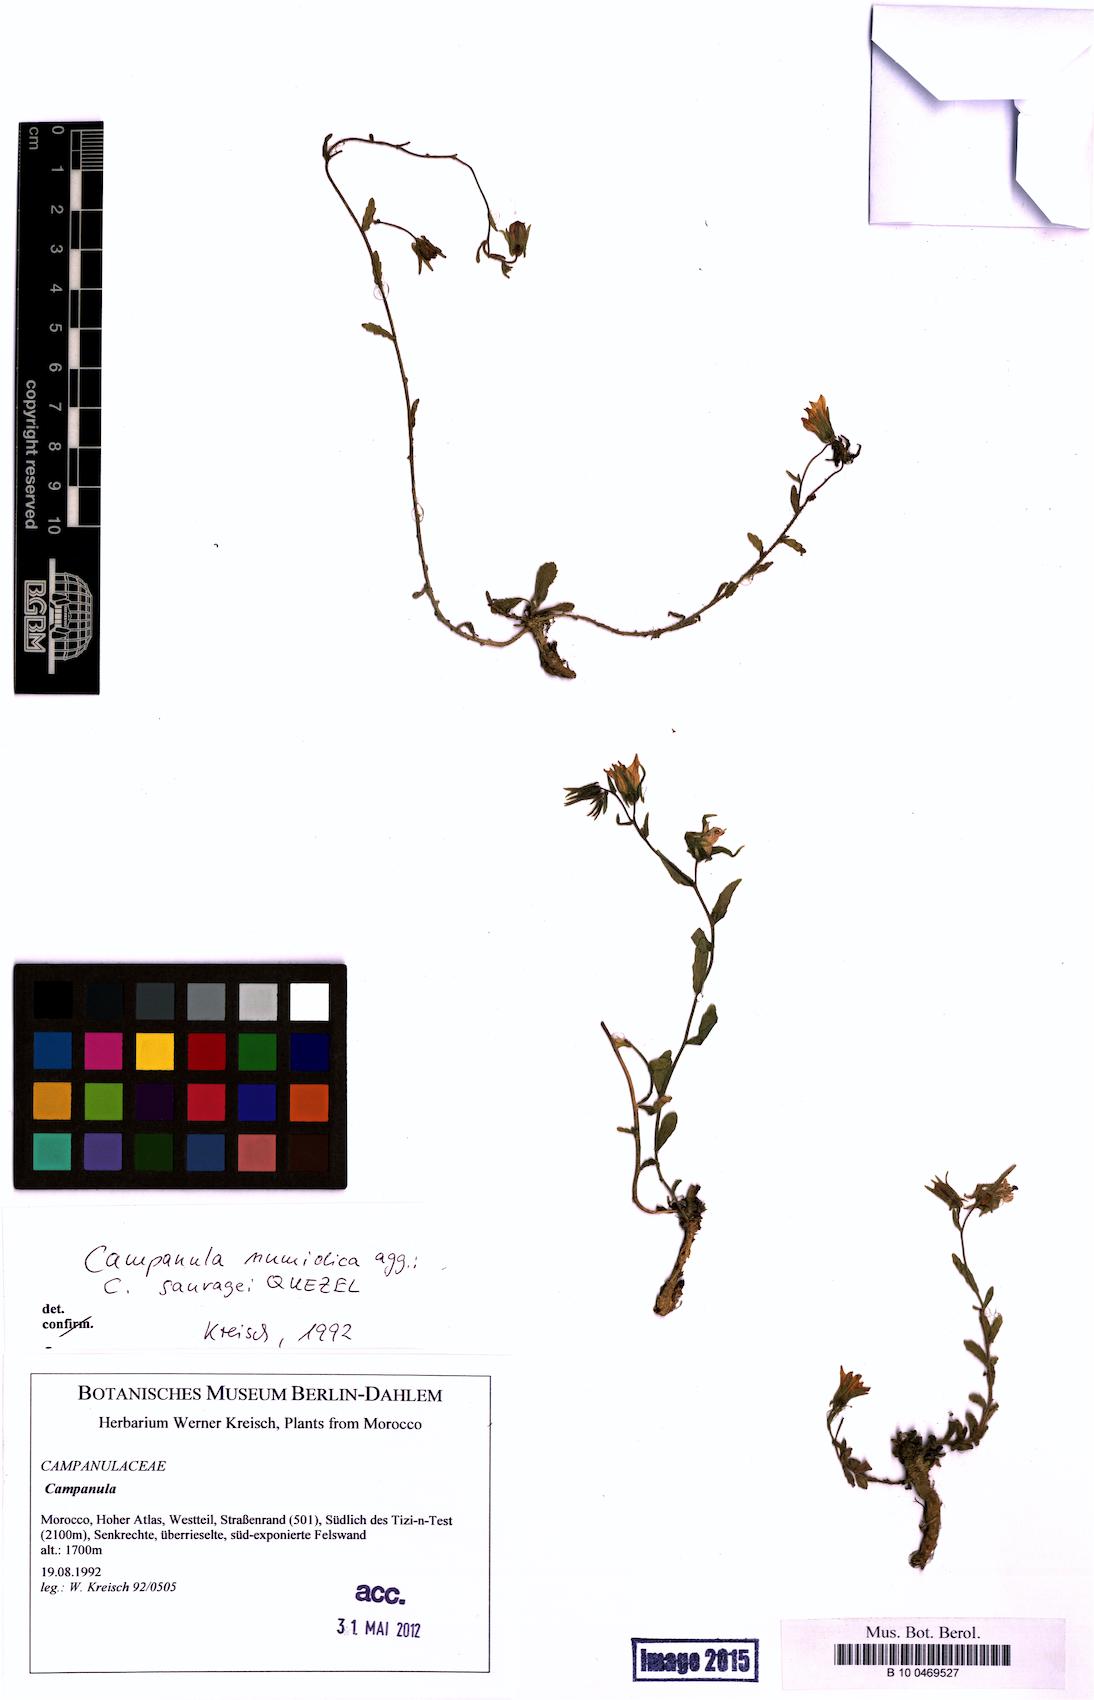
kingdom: Plantae
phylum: Tracheophyta
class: Magnoliopsida
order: Asterales
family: Campanulaceae
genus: Campanula
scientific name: Campanula numidica
